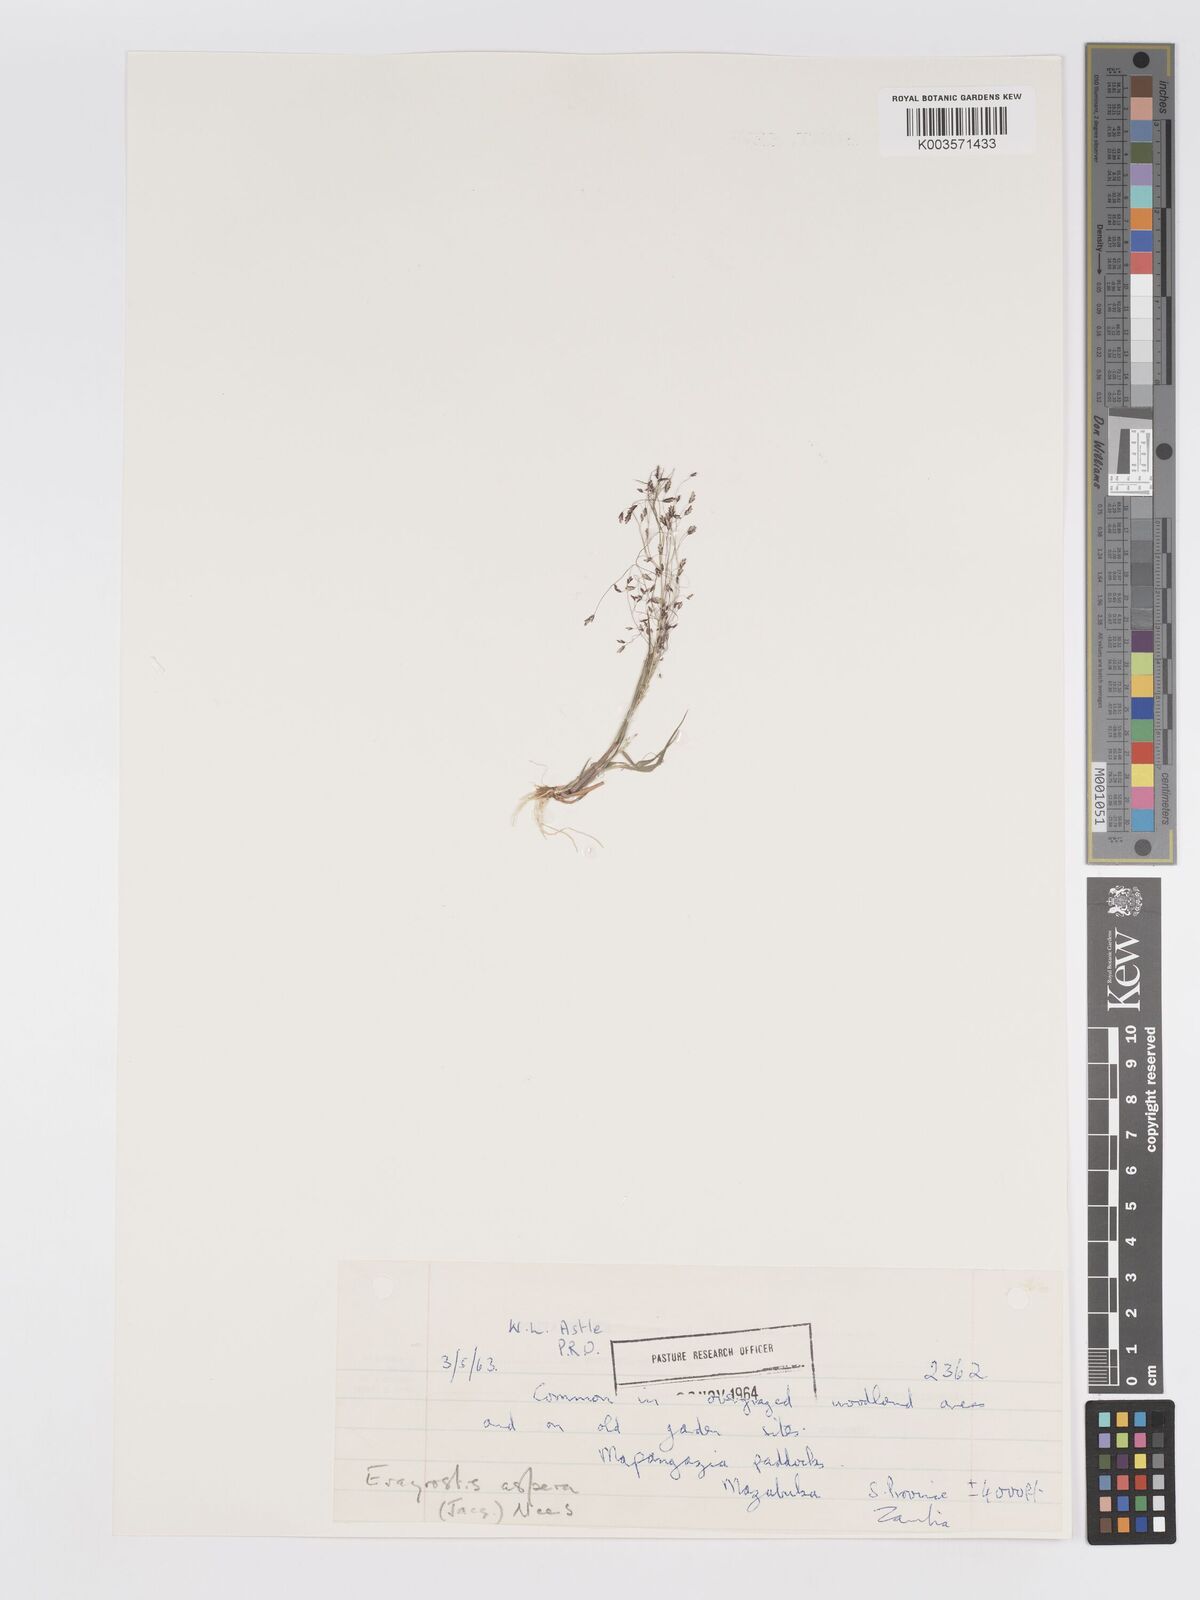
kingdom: Plantae
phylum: Tracheophyta
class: Liliopsida
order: Poales
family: Poaceae
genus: Eragrostis
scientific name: Eragrostis aspera
